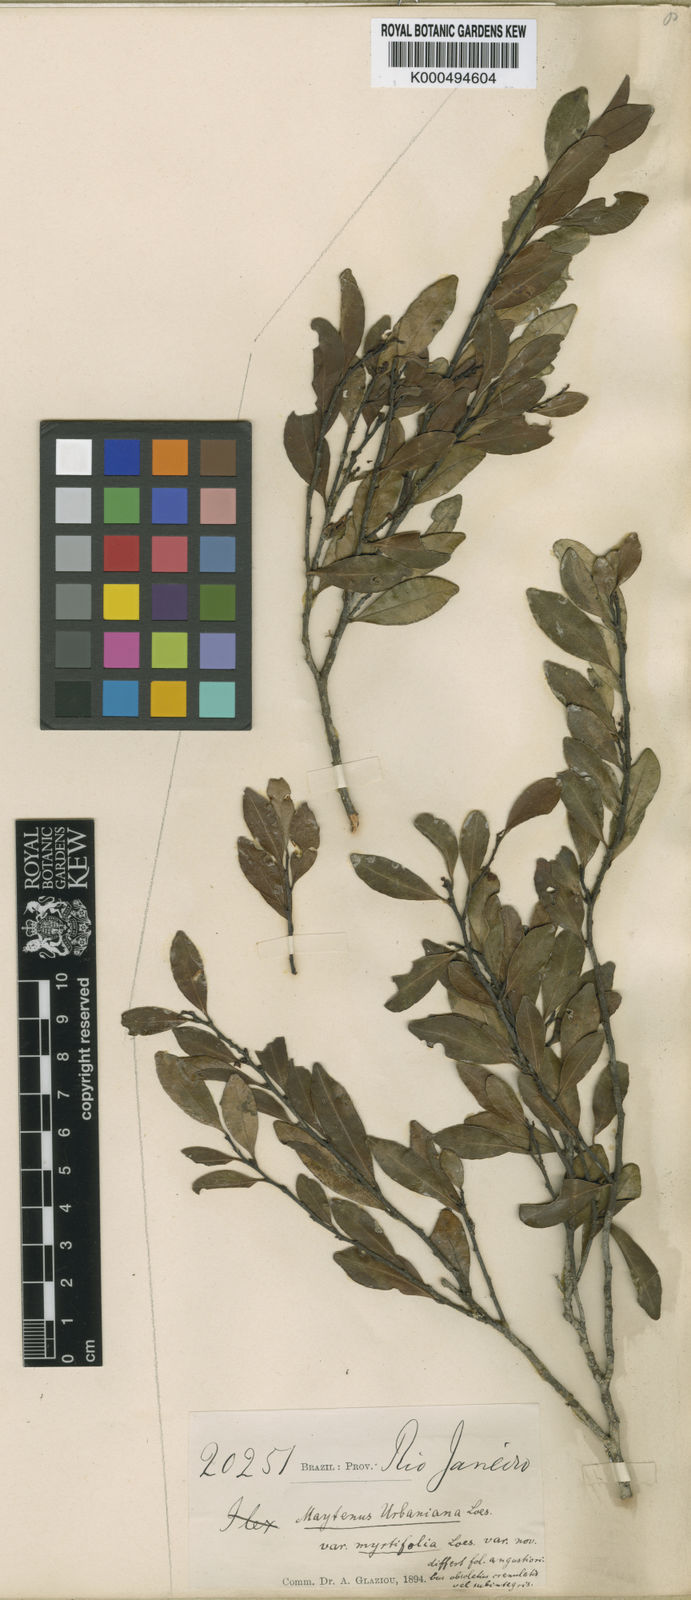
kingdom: Plantae
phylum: Tracheophyta
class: Magnoliopsida
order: Celastrales
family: Celastraceae
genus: Monteverdia
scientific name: Monteverdia urbaniana
